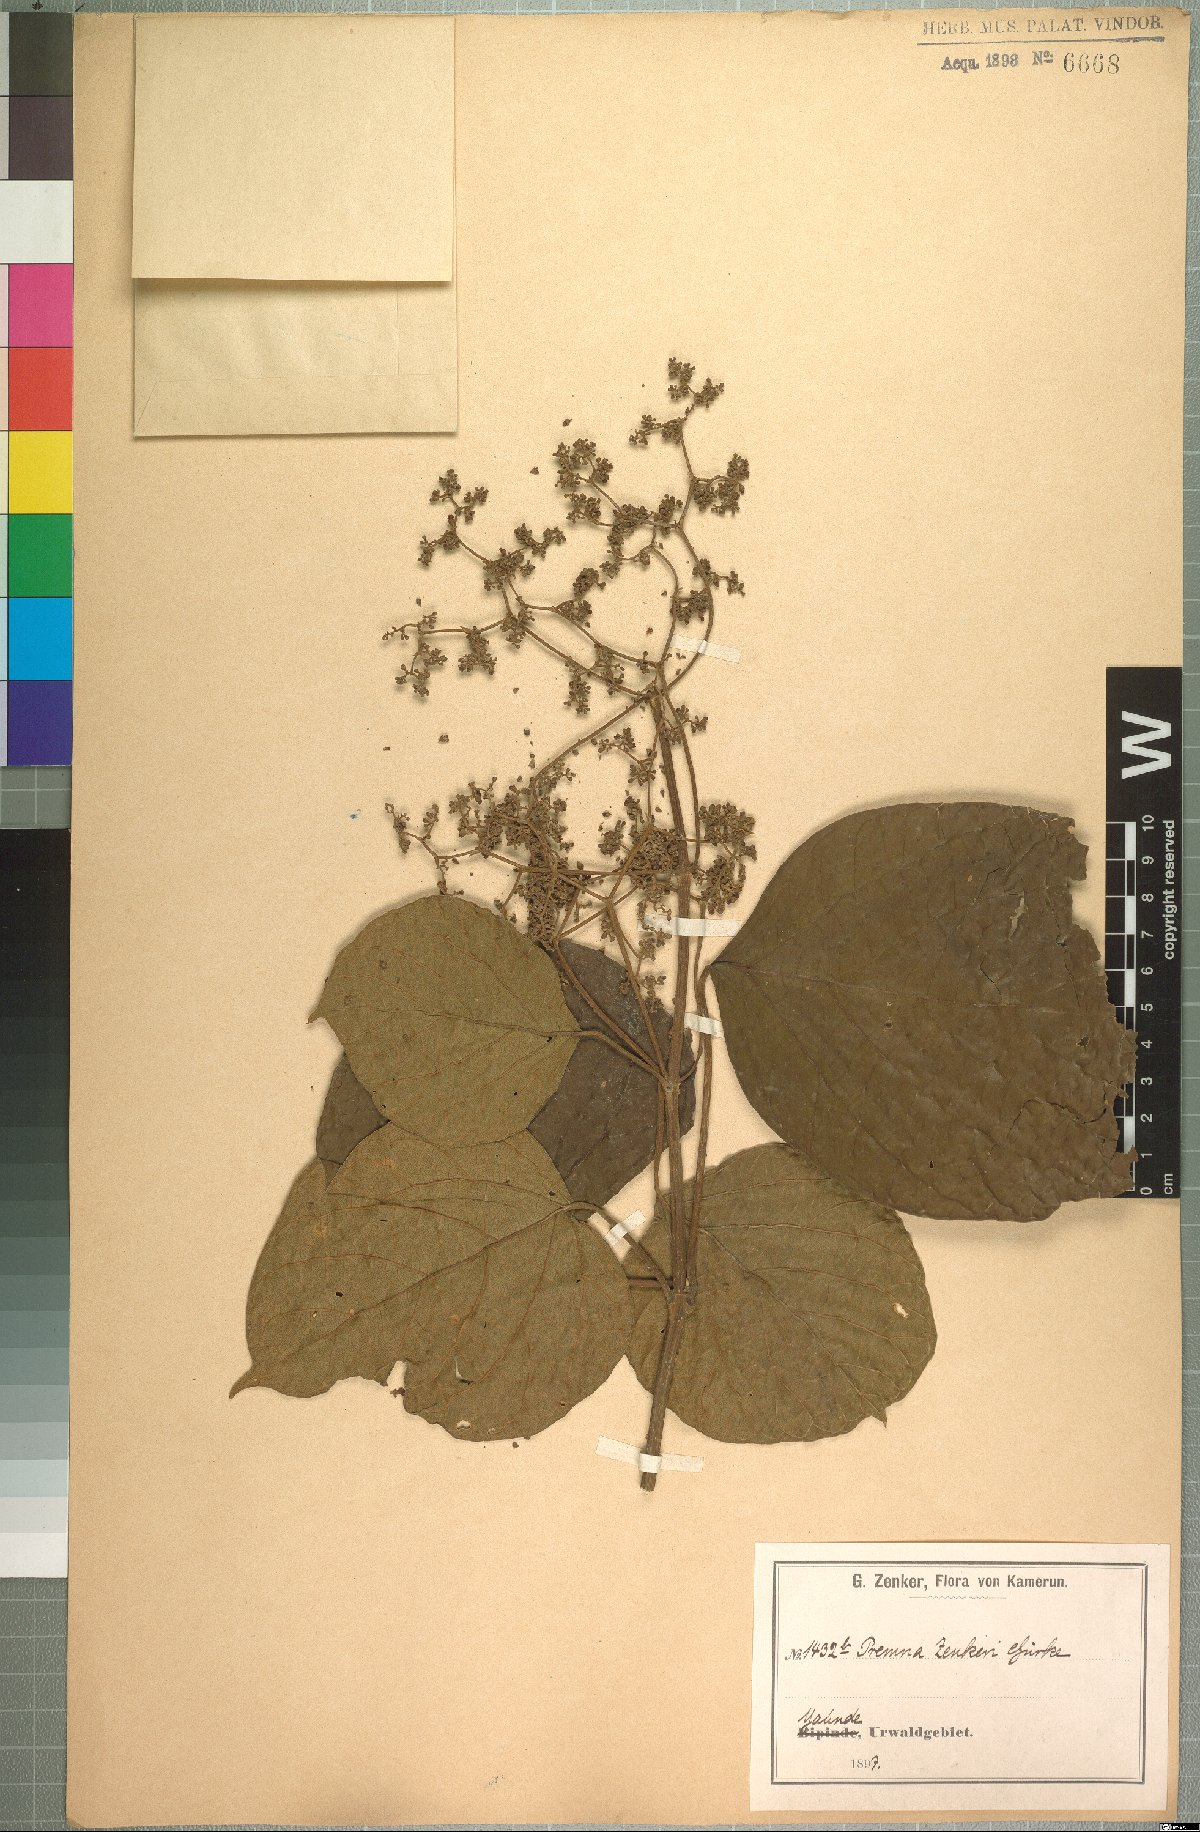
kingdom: Plantae
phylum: Tracheophyta
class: Magnoliopsida
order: Lamiales
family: Lamiaceae
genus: Premna
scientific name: Premna angolensis
